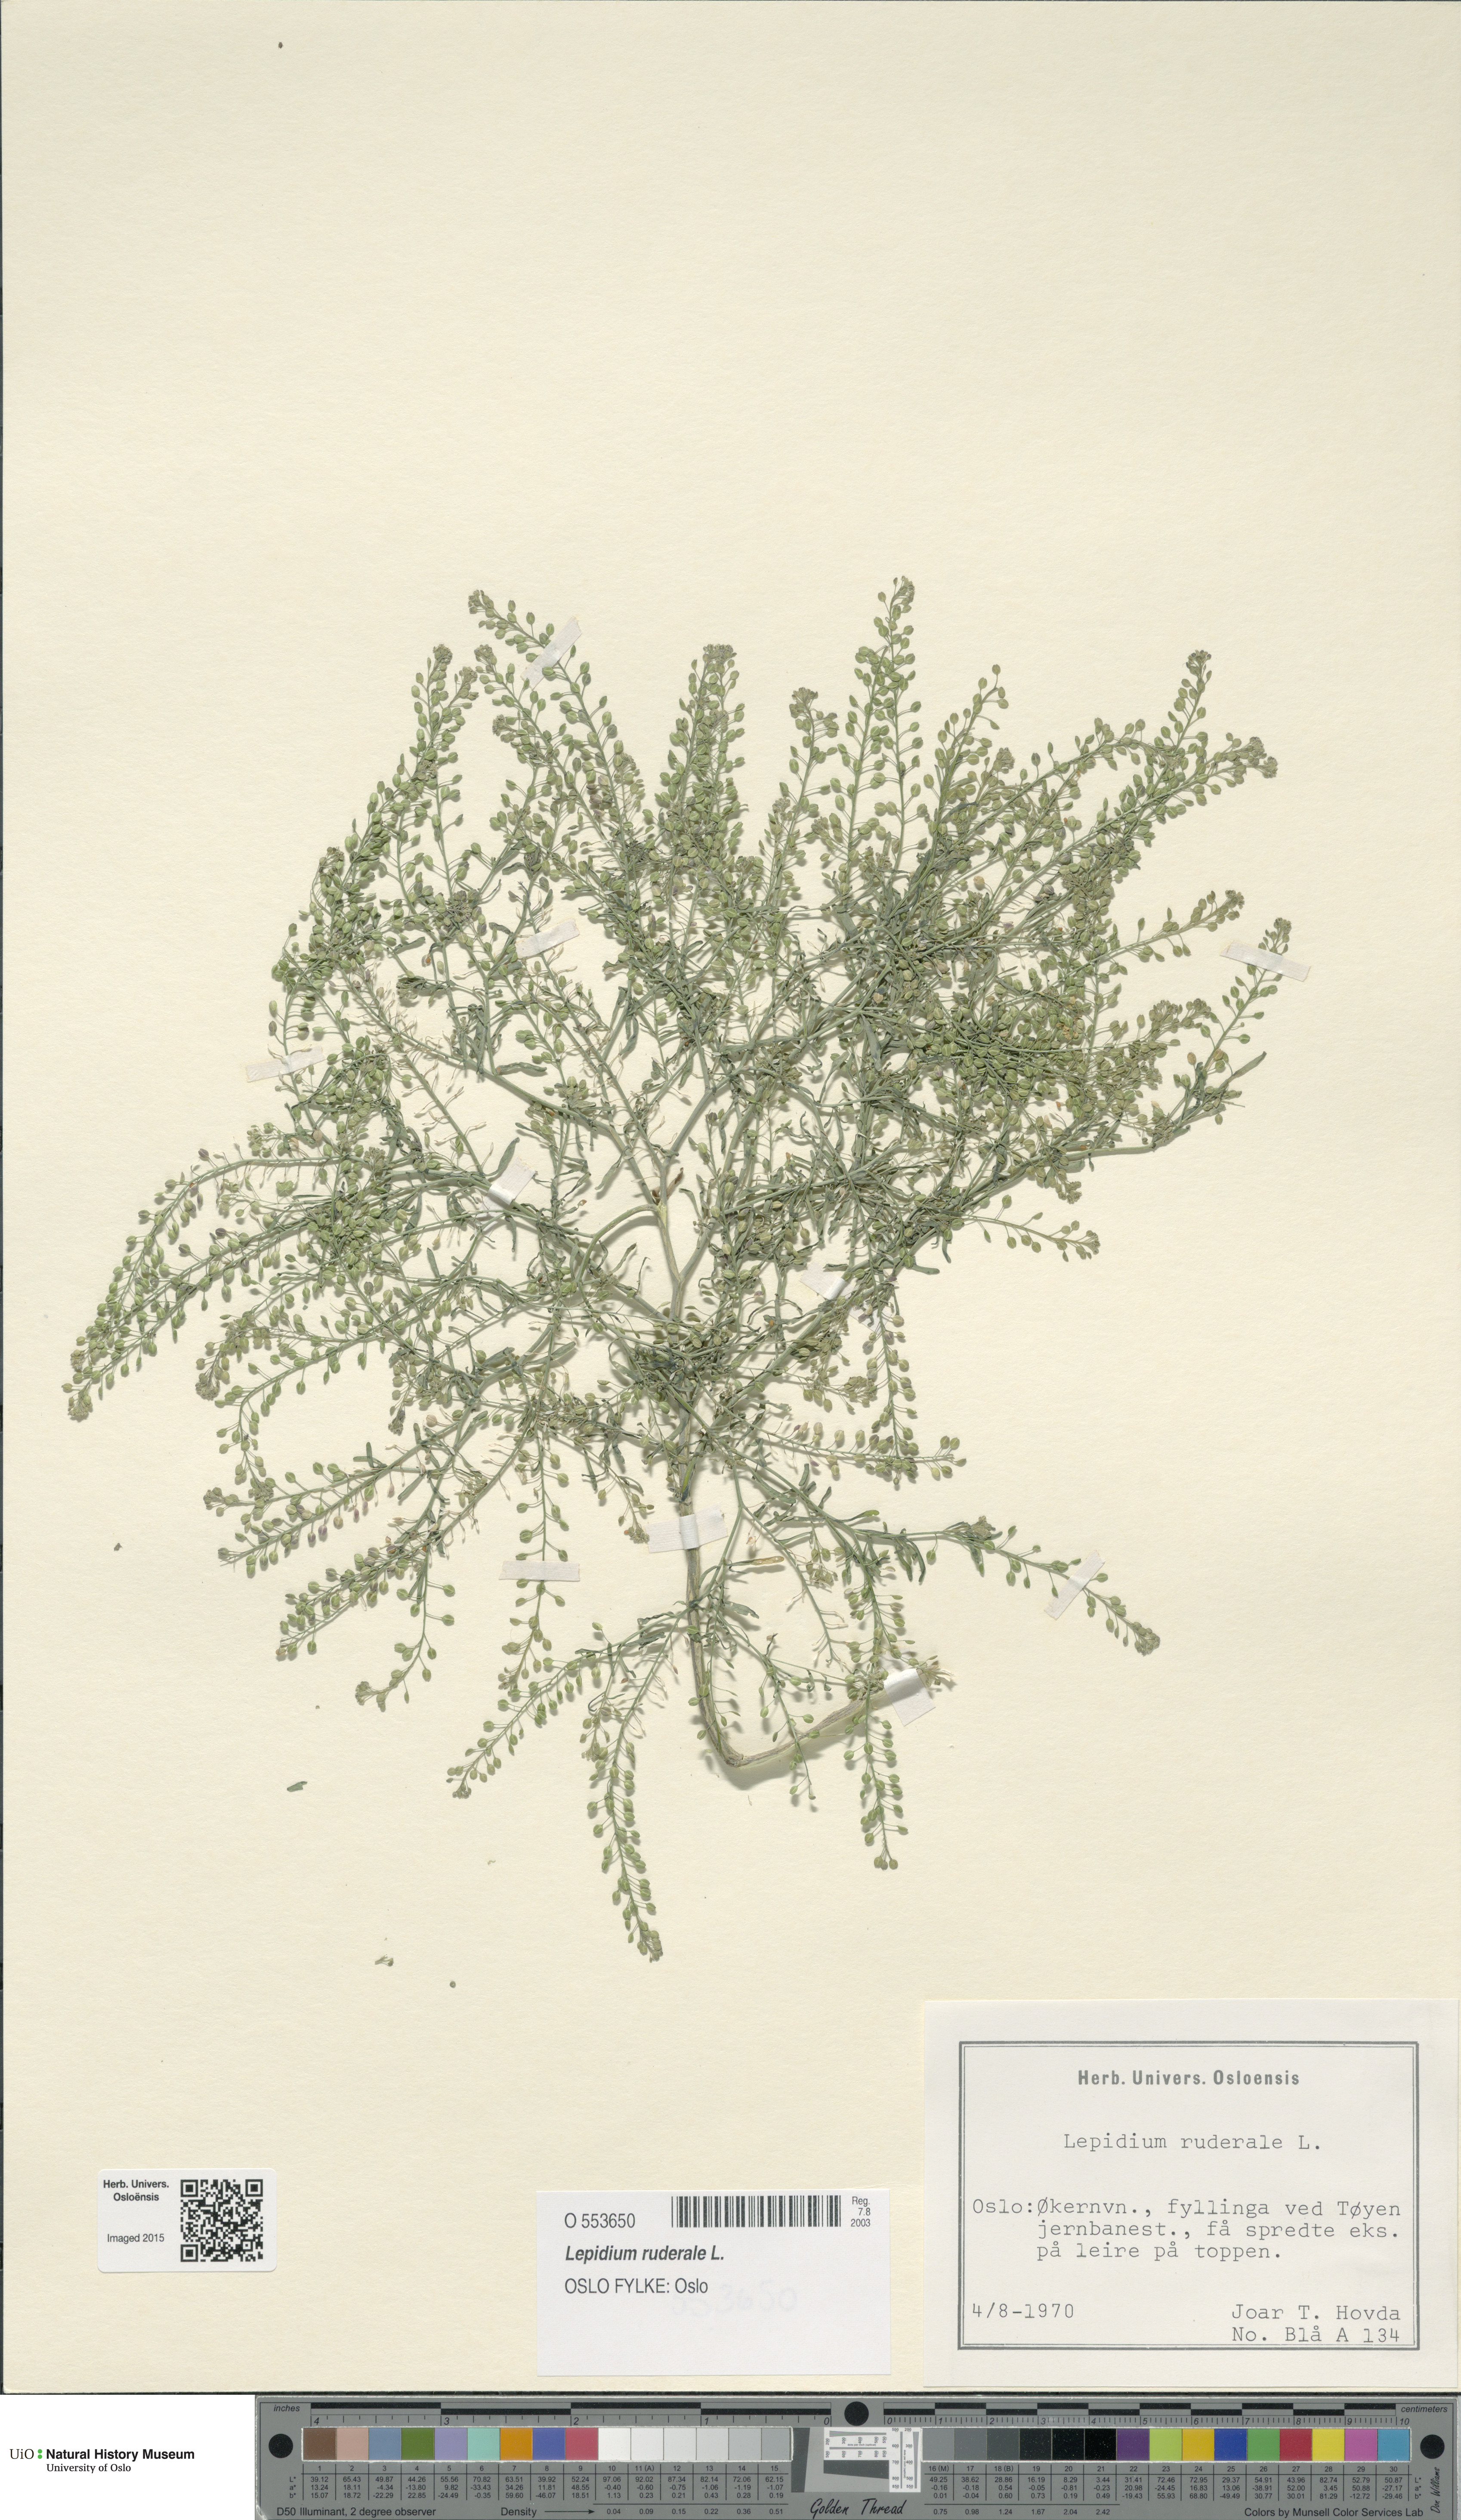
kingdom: Plantae
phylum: Tracheophyta
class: Magnoliopsida
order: Brassicales
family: Brassicaceae
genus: Lepidium
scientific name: Lepidium ruderale
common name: Narrow-leaved pepperwort
